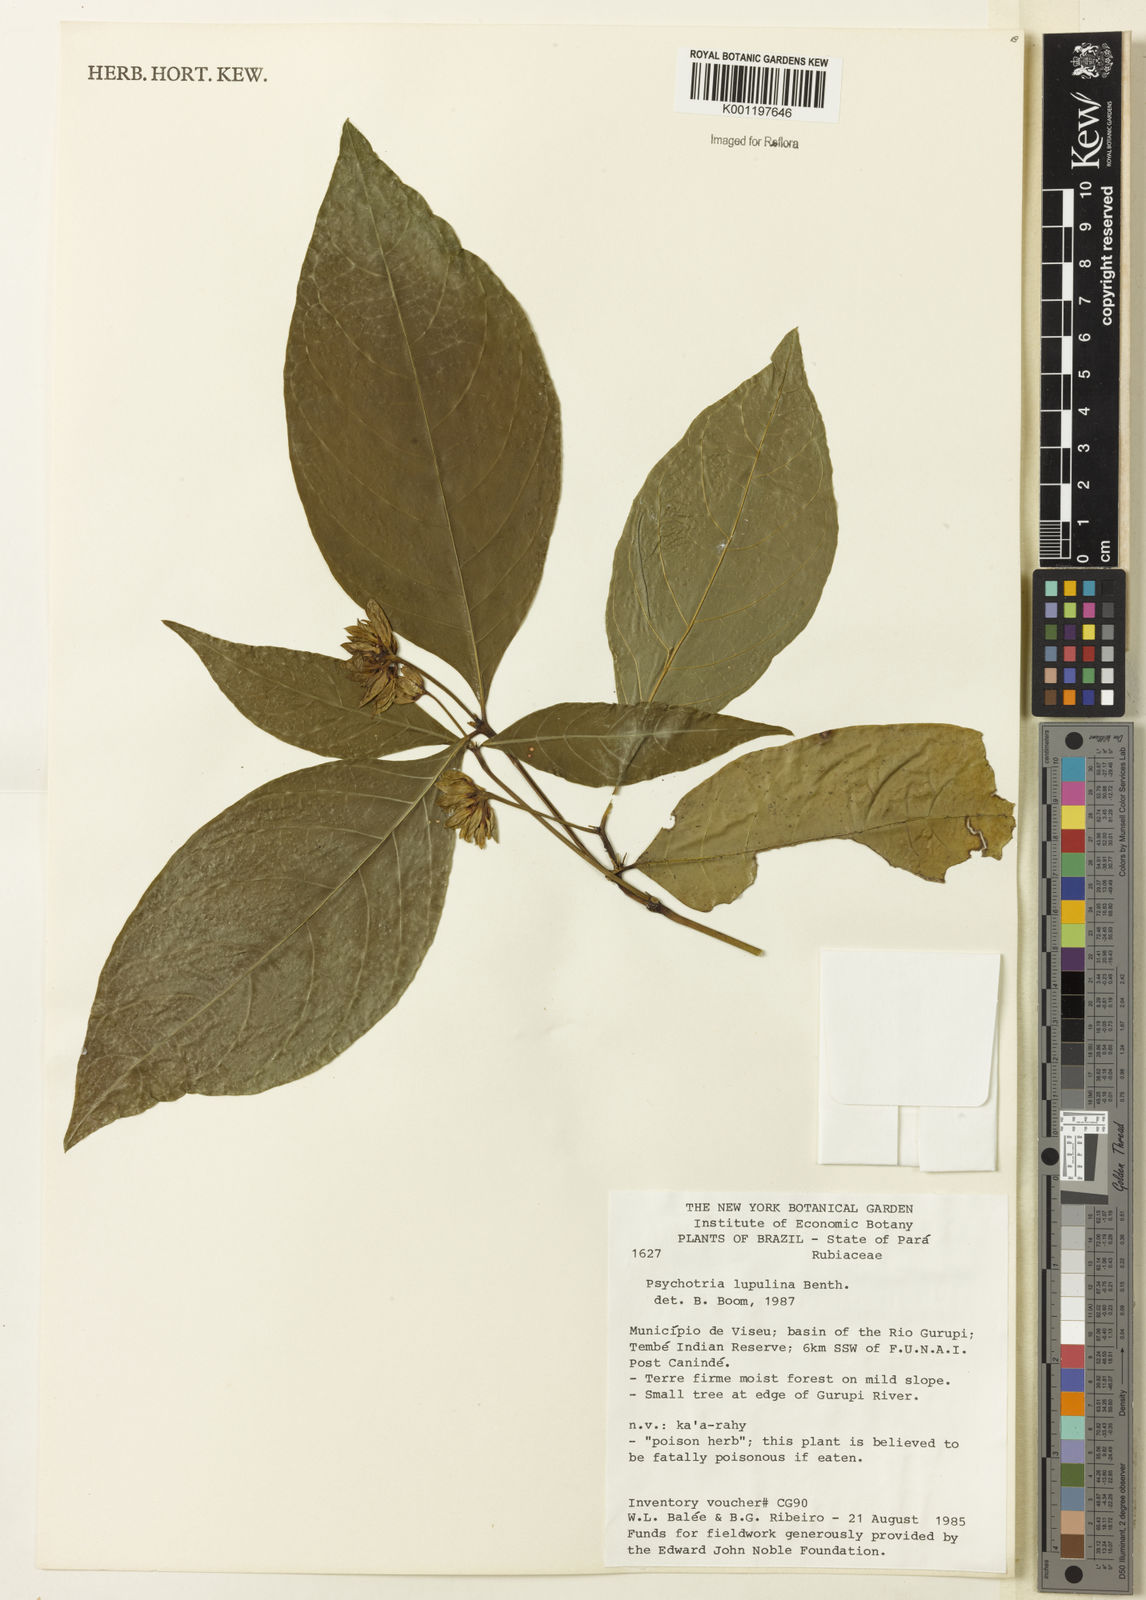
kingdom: Plantae
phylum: Tracheophyta
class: Magnoliopsida
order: Gentianales
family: Rubiaceae
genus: Palicourea
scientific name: Palicourea justiciifolia
